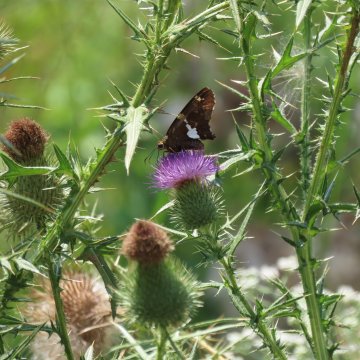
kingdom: Animalia
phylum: Arthropoda
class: Insecta
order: Lepidoptera
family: Hesperiidae
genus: Epargyreus
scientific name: Epargyreus clarus
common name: Silver-spotted Skipper
